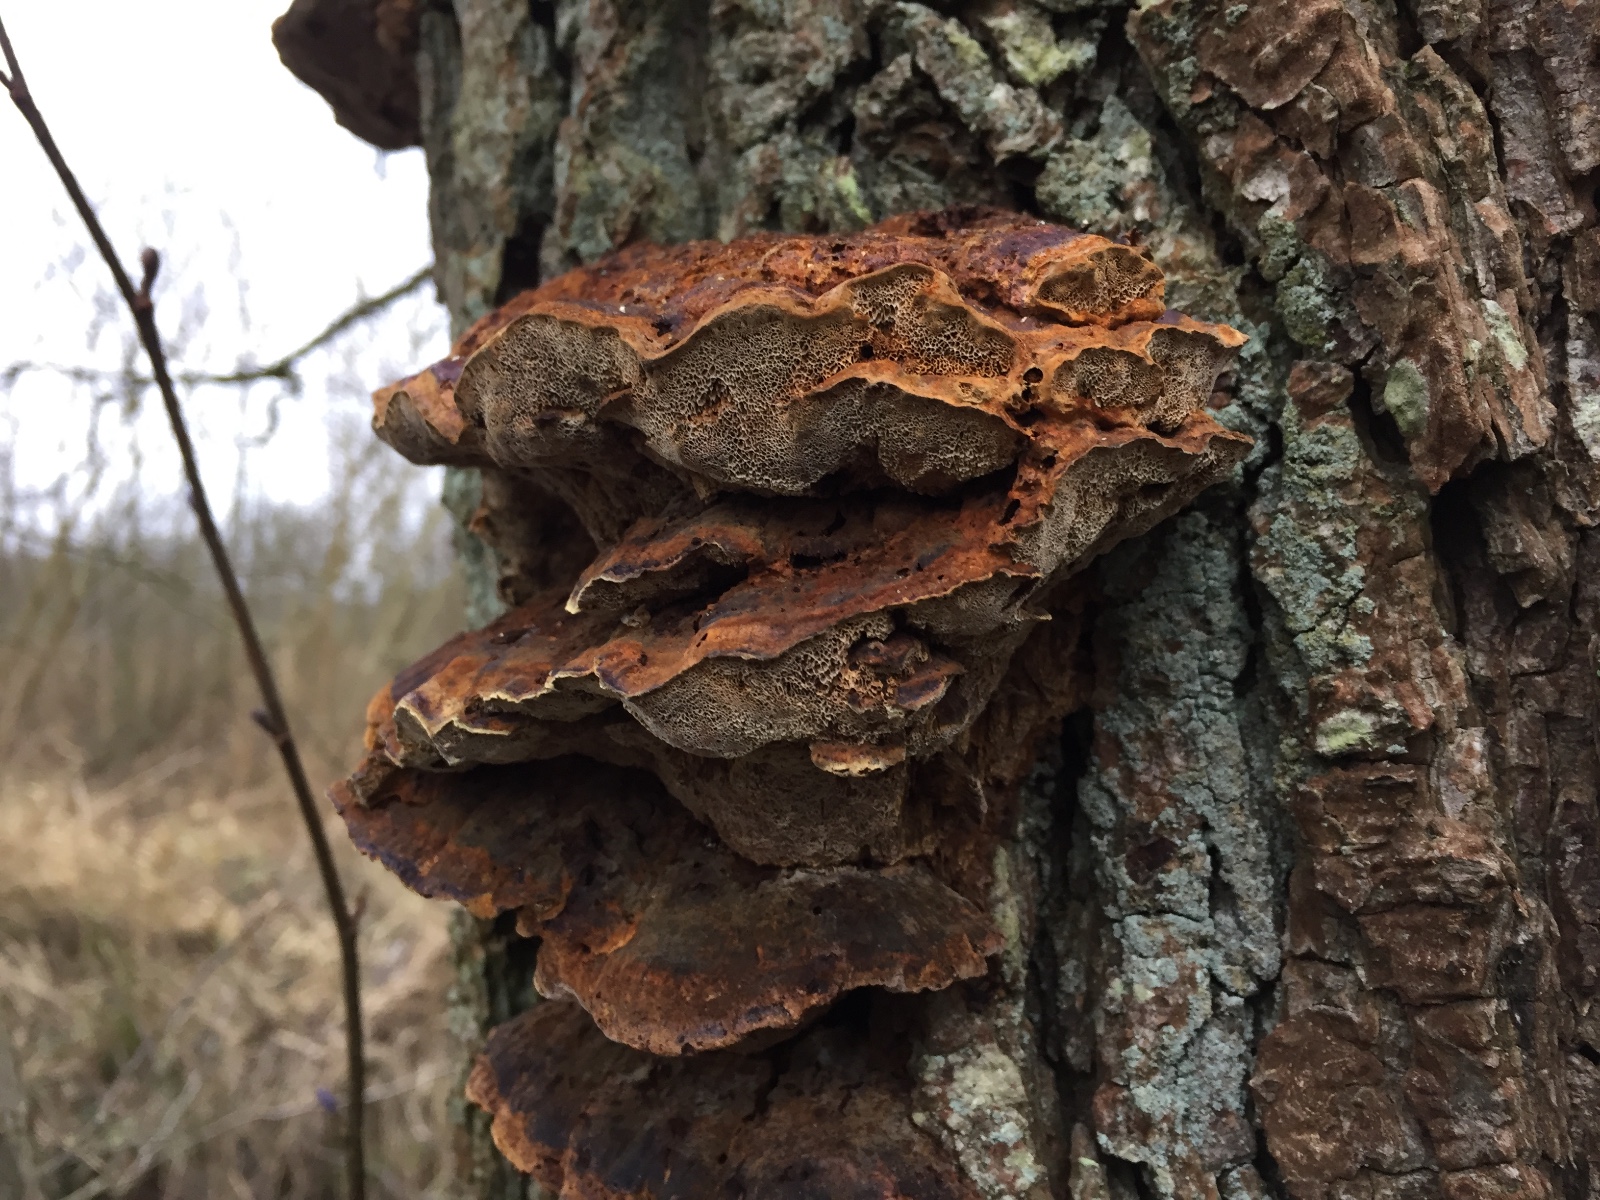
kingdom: Fungi
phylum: Basidiomycota
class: Agaricomycetes
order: Hymenochaetales
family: Hymenochaetaceae
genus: Xanthoporia
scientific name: Xanthoporia radiata
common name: elle-spejlporesvamp
